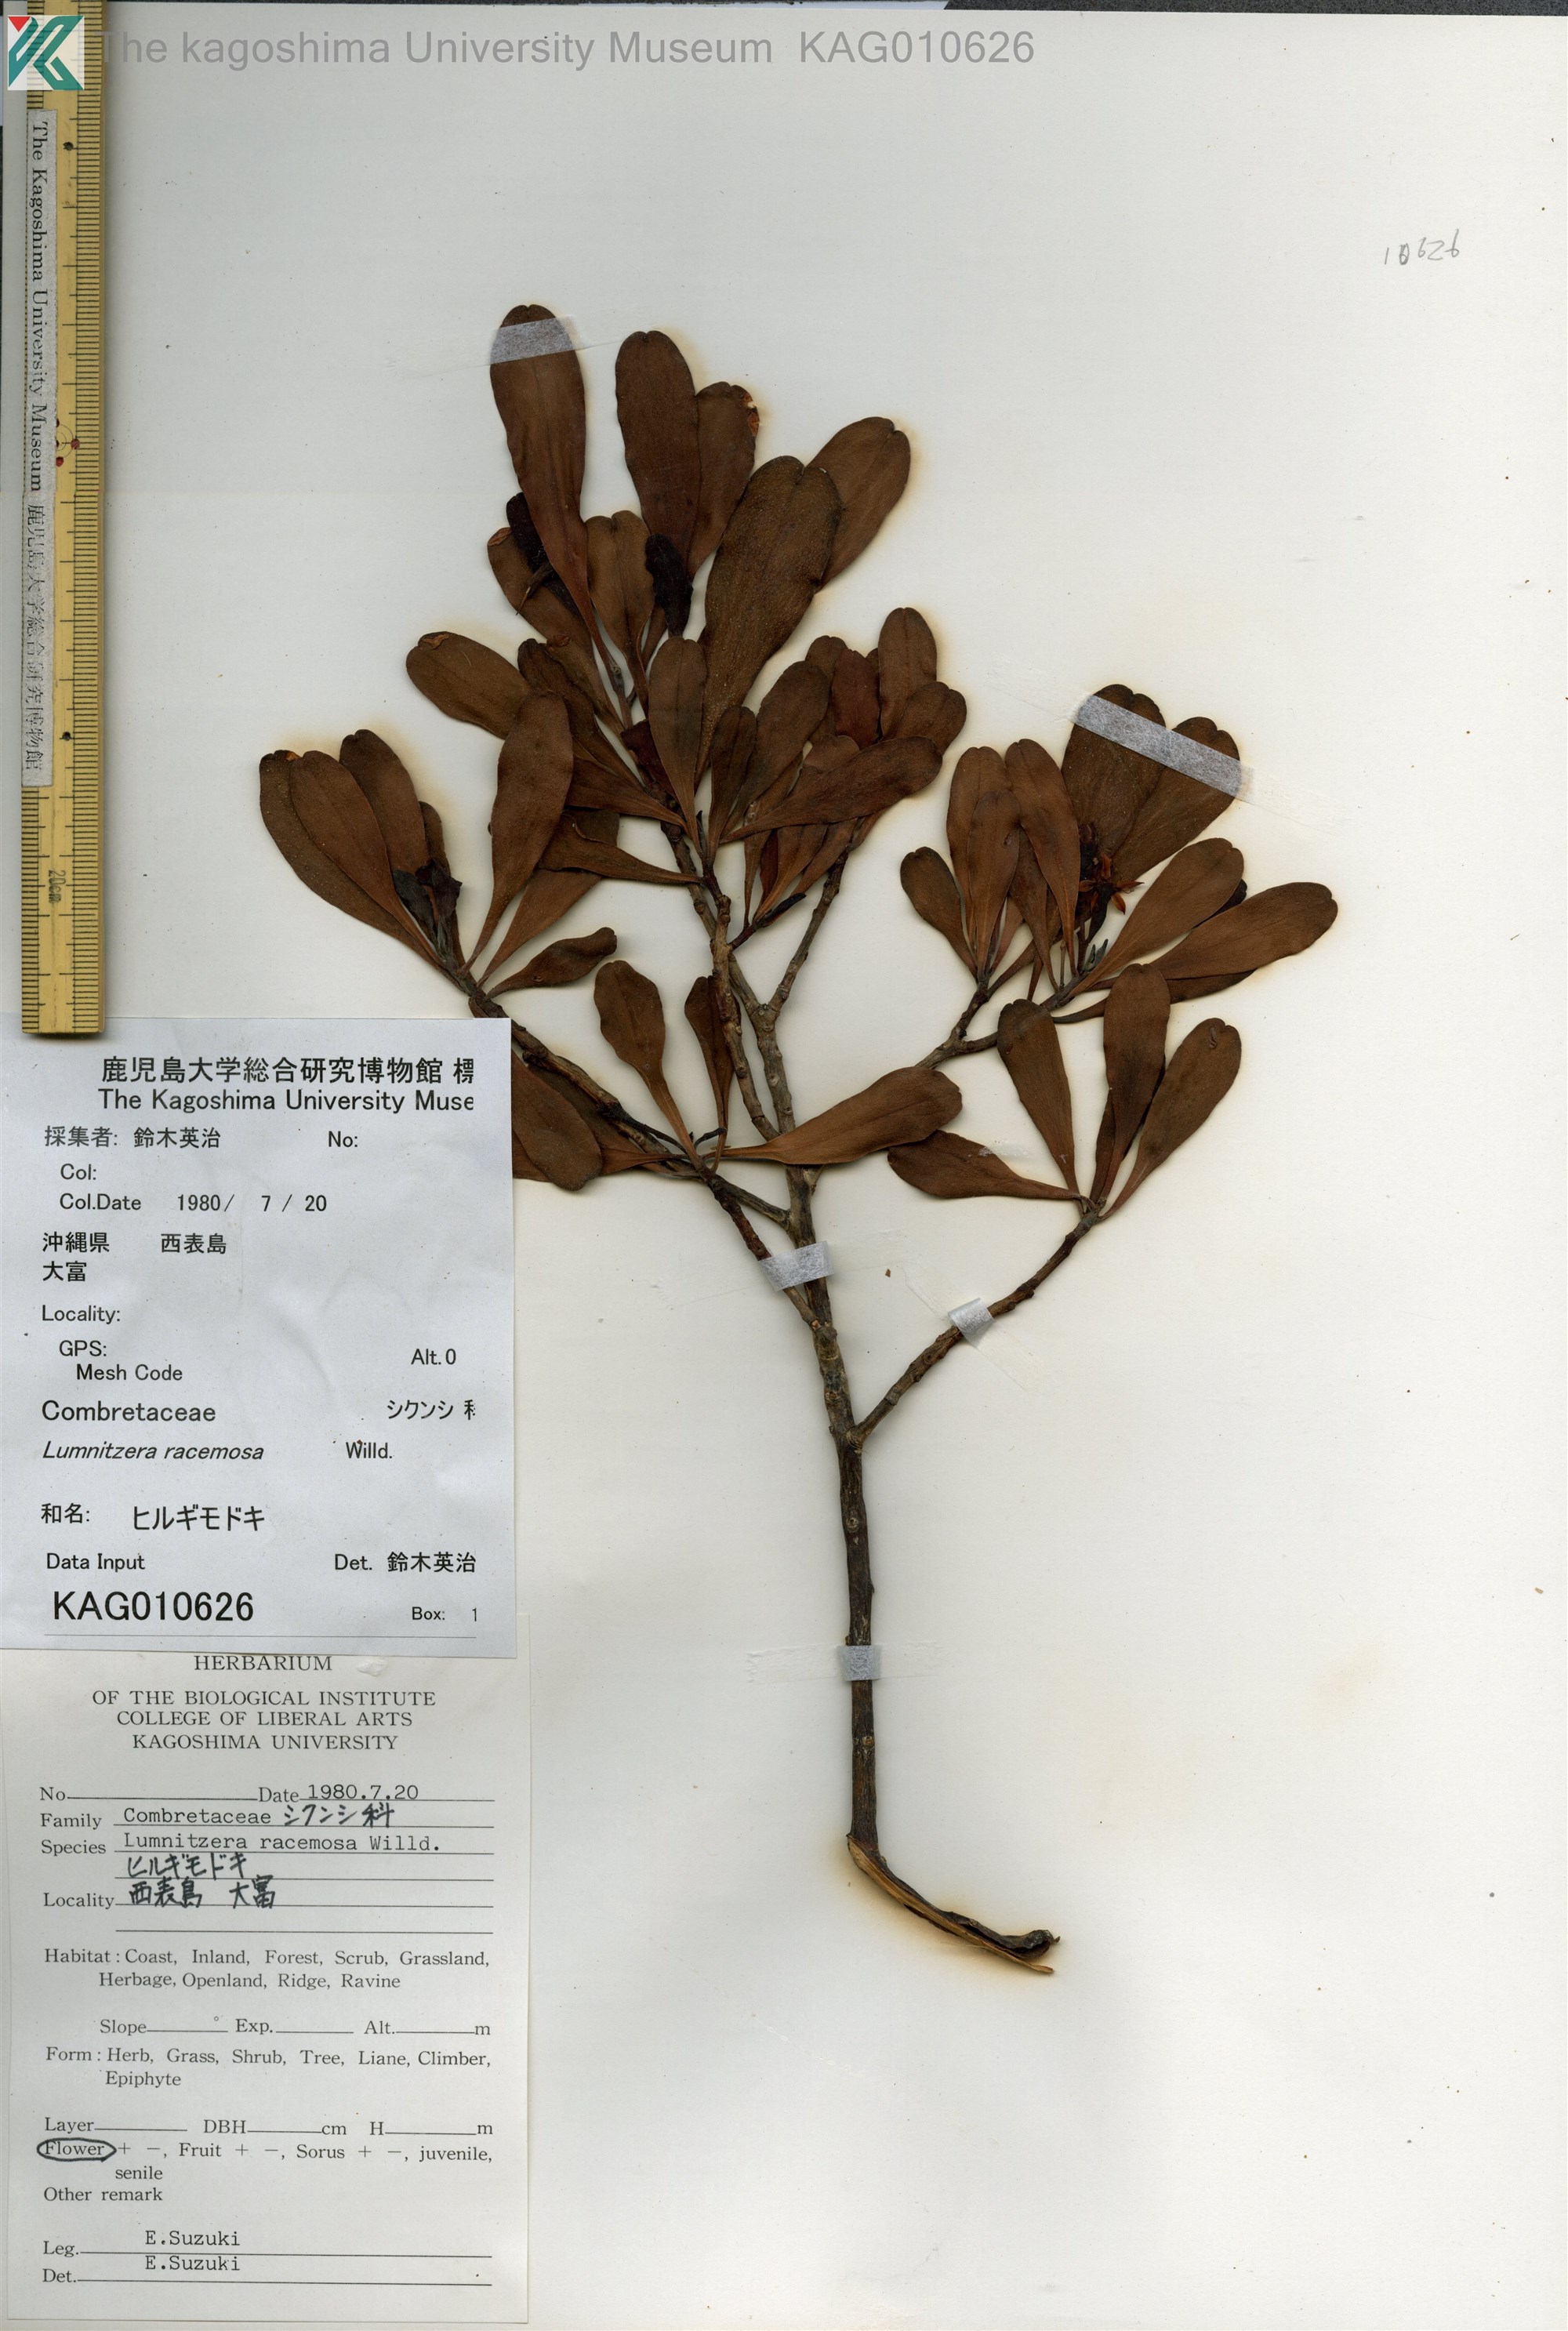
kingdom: Plantae
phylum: Tracheophyta
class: Magnoliopsida
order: Myrtales
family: Combretaceae
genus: Lumnitzera
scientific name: Lumnitzera racemosa
